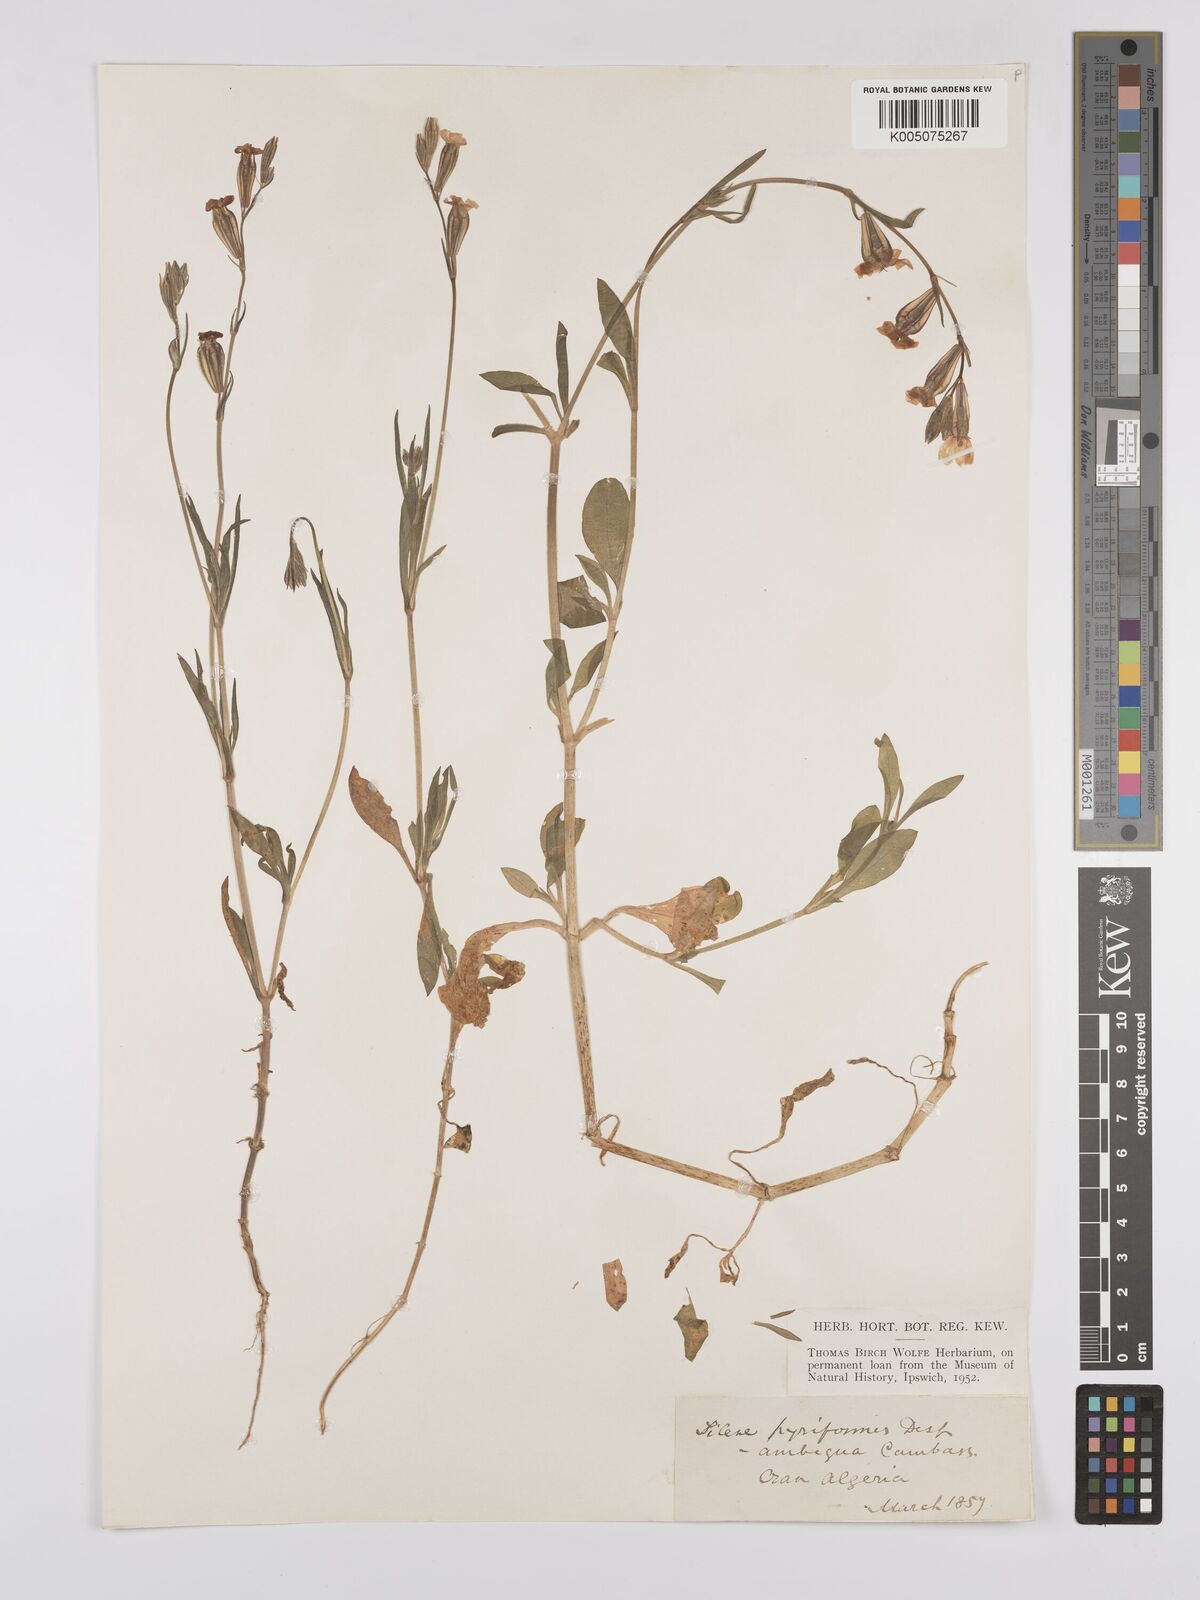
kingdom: Plantae
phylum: Tracheophyta
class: Magnoliopsida
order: Caryophyllales
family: Caryophyllaceae
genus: Silene
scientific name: Silene secundiflora
